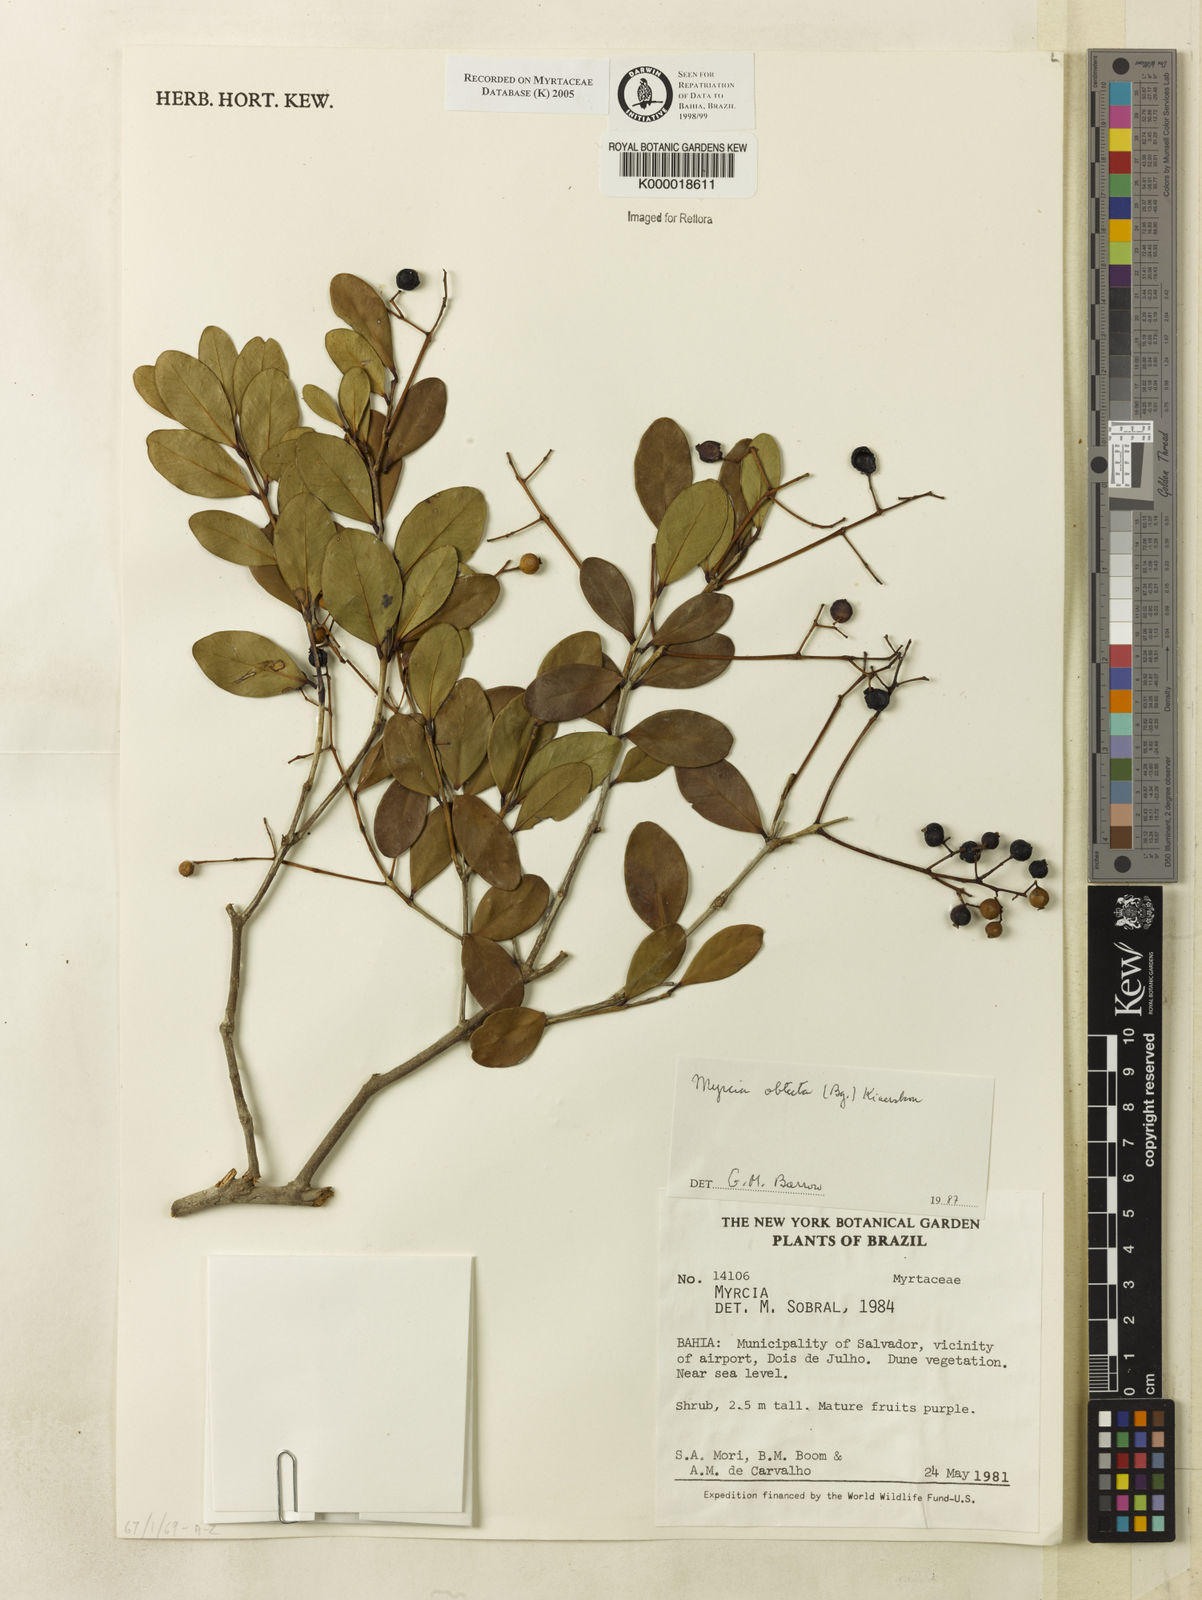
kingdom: Plantae
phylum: Tracheophyta
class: Magnoliopsida
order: Myrtales
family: Myrtaceae
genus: Myrcia
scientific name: Myrcia guianensis
